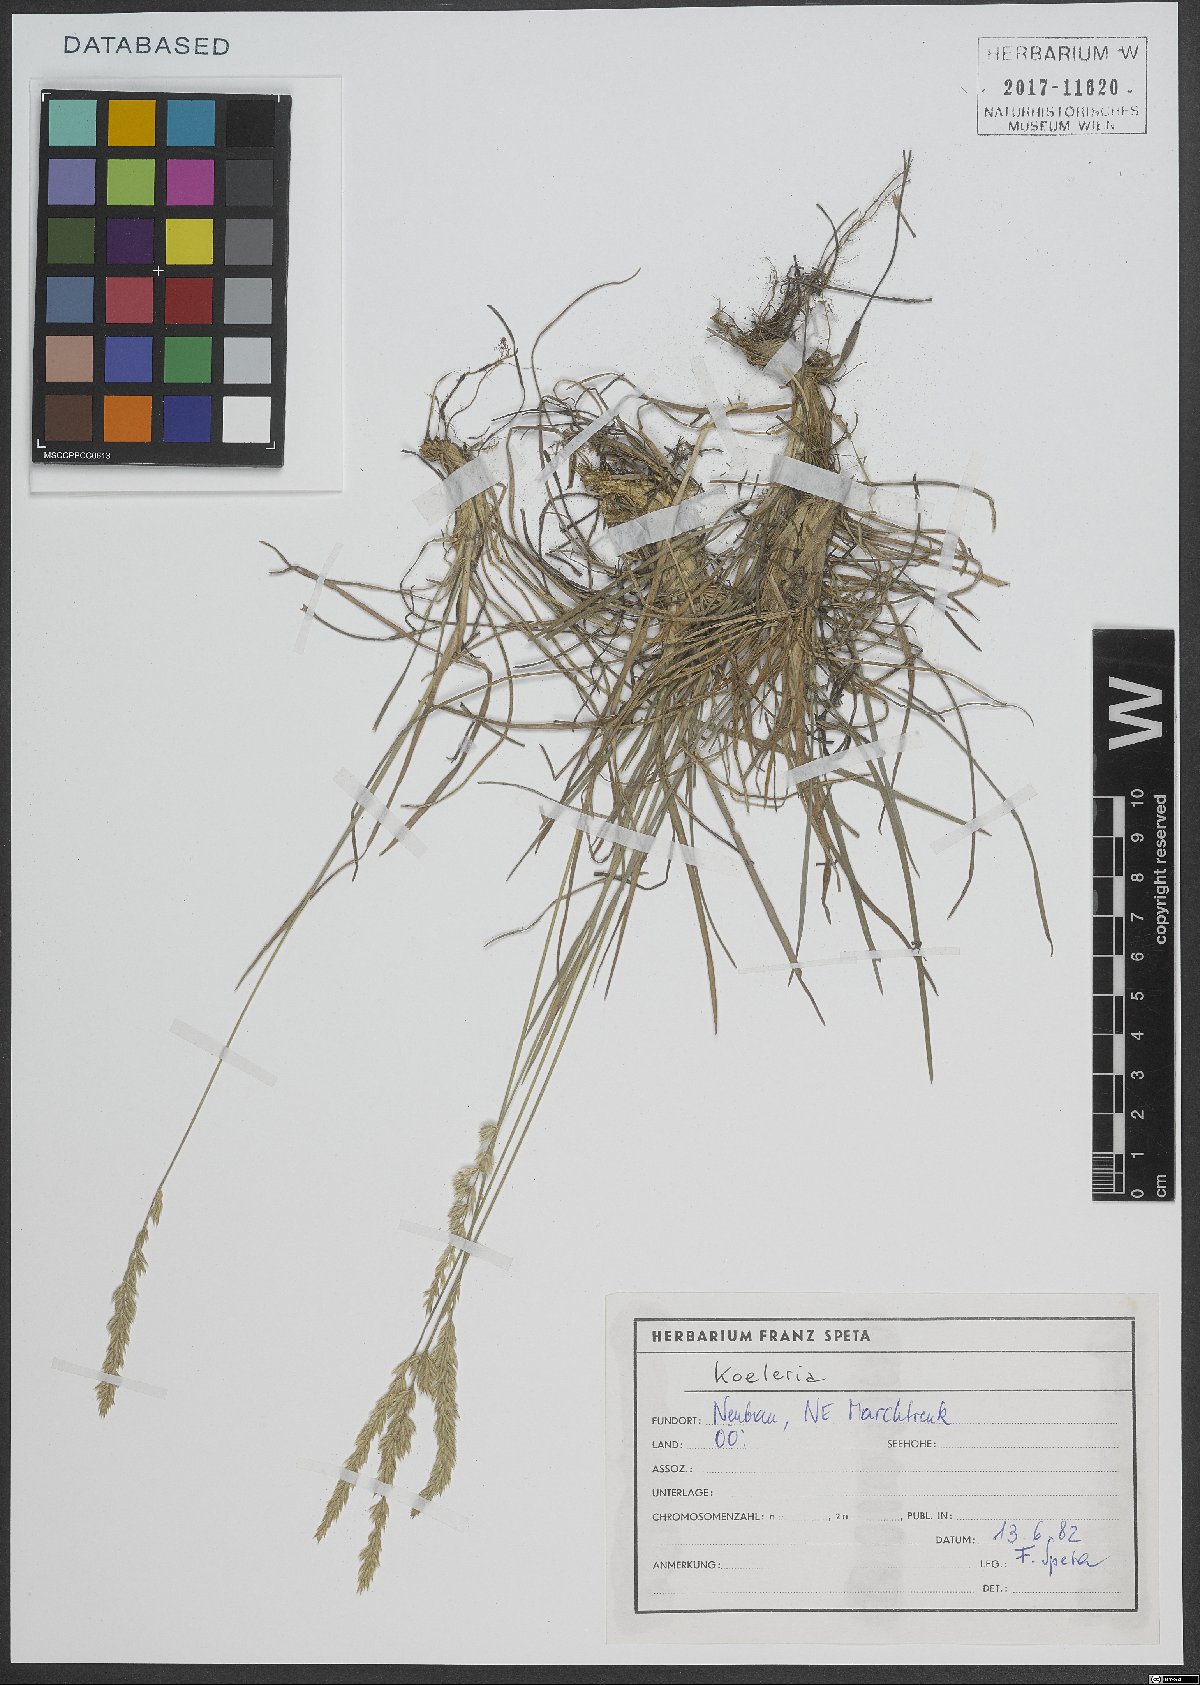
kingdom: Plantae
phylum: Tracheophyta
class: Liliopsida
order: Poales
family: Poaceae
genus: Koeleria
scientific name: Koeleria
